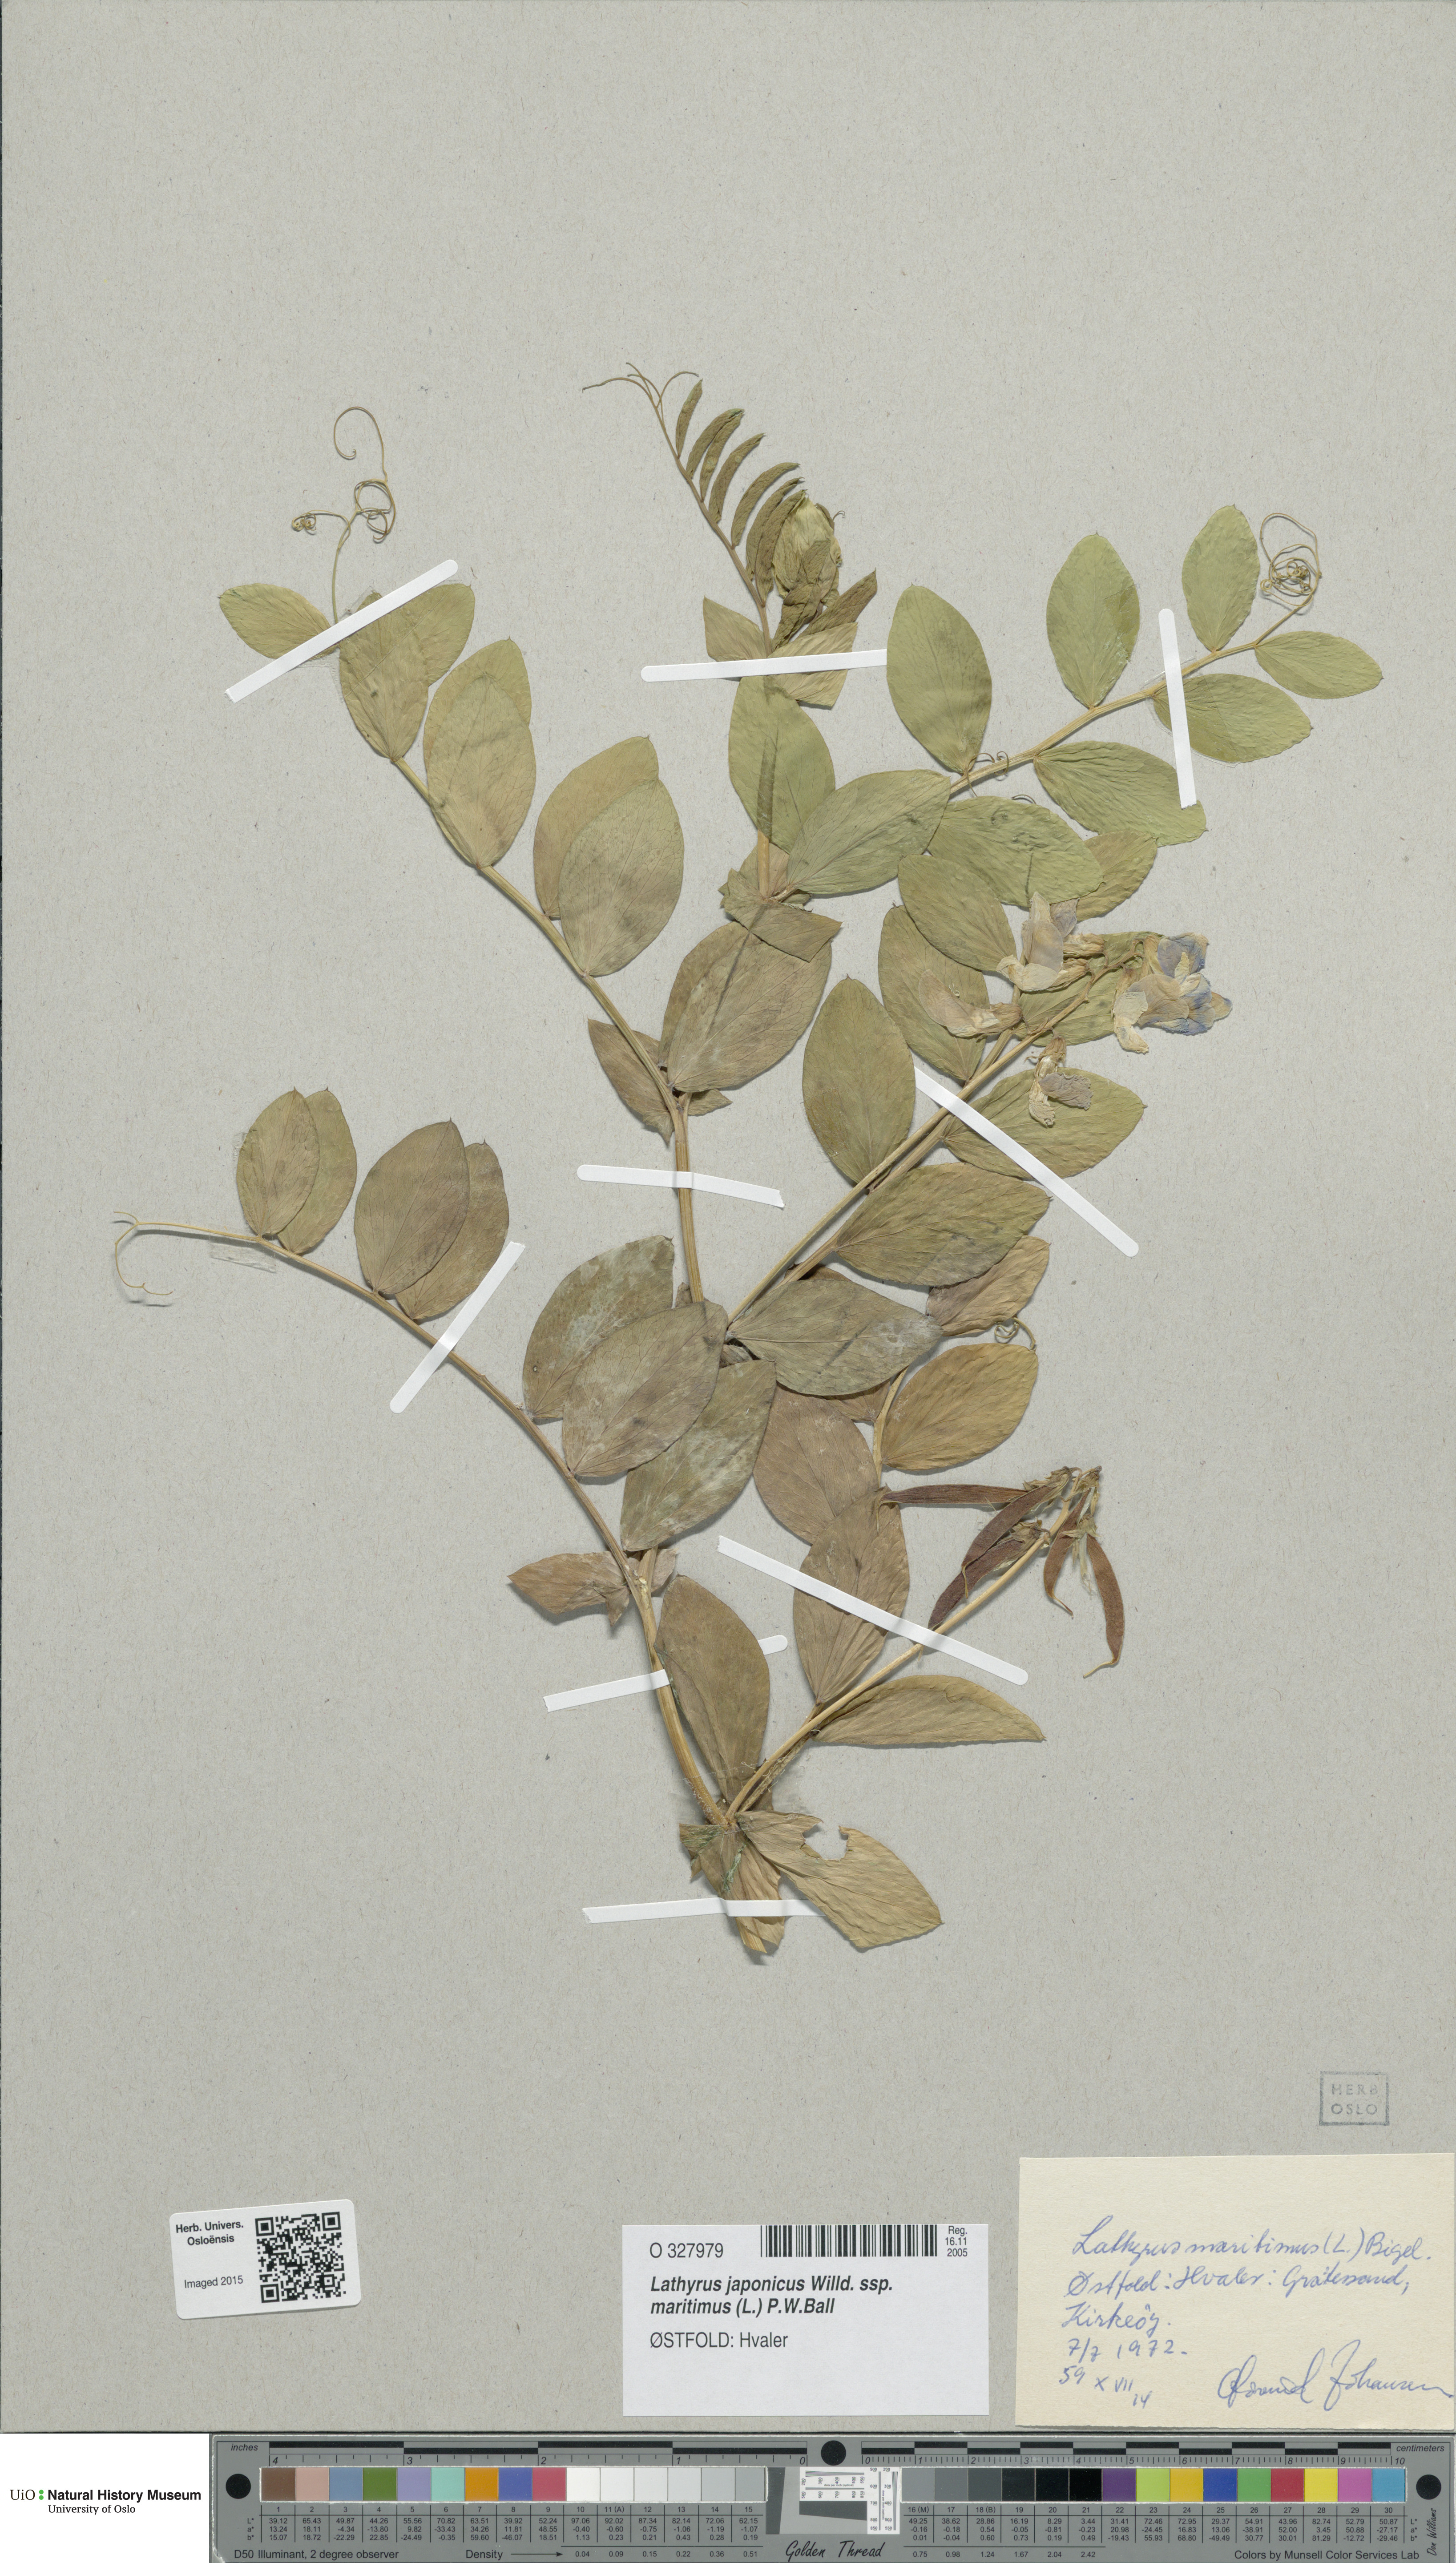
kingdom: Plantae
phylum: Tracheophyta
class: Magnoliopsida
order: Fabales
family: Fabaceae
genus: Lathyrus
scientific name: Lathyrus japonicus
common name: Sea pea
